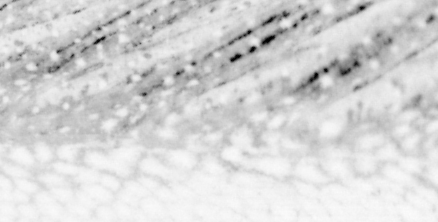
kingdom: Animalia
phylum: Chordata
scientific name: Chordata
